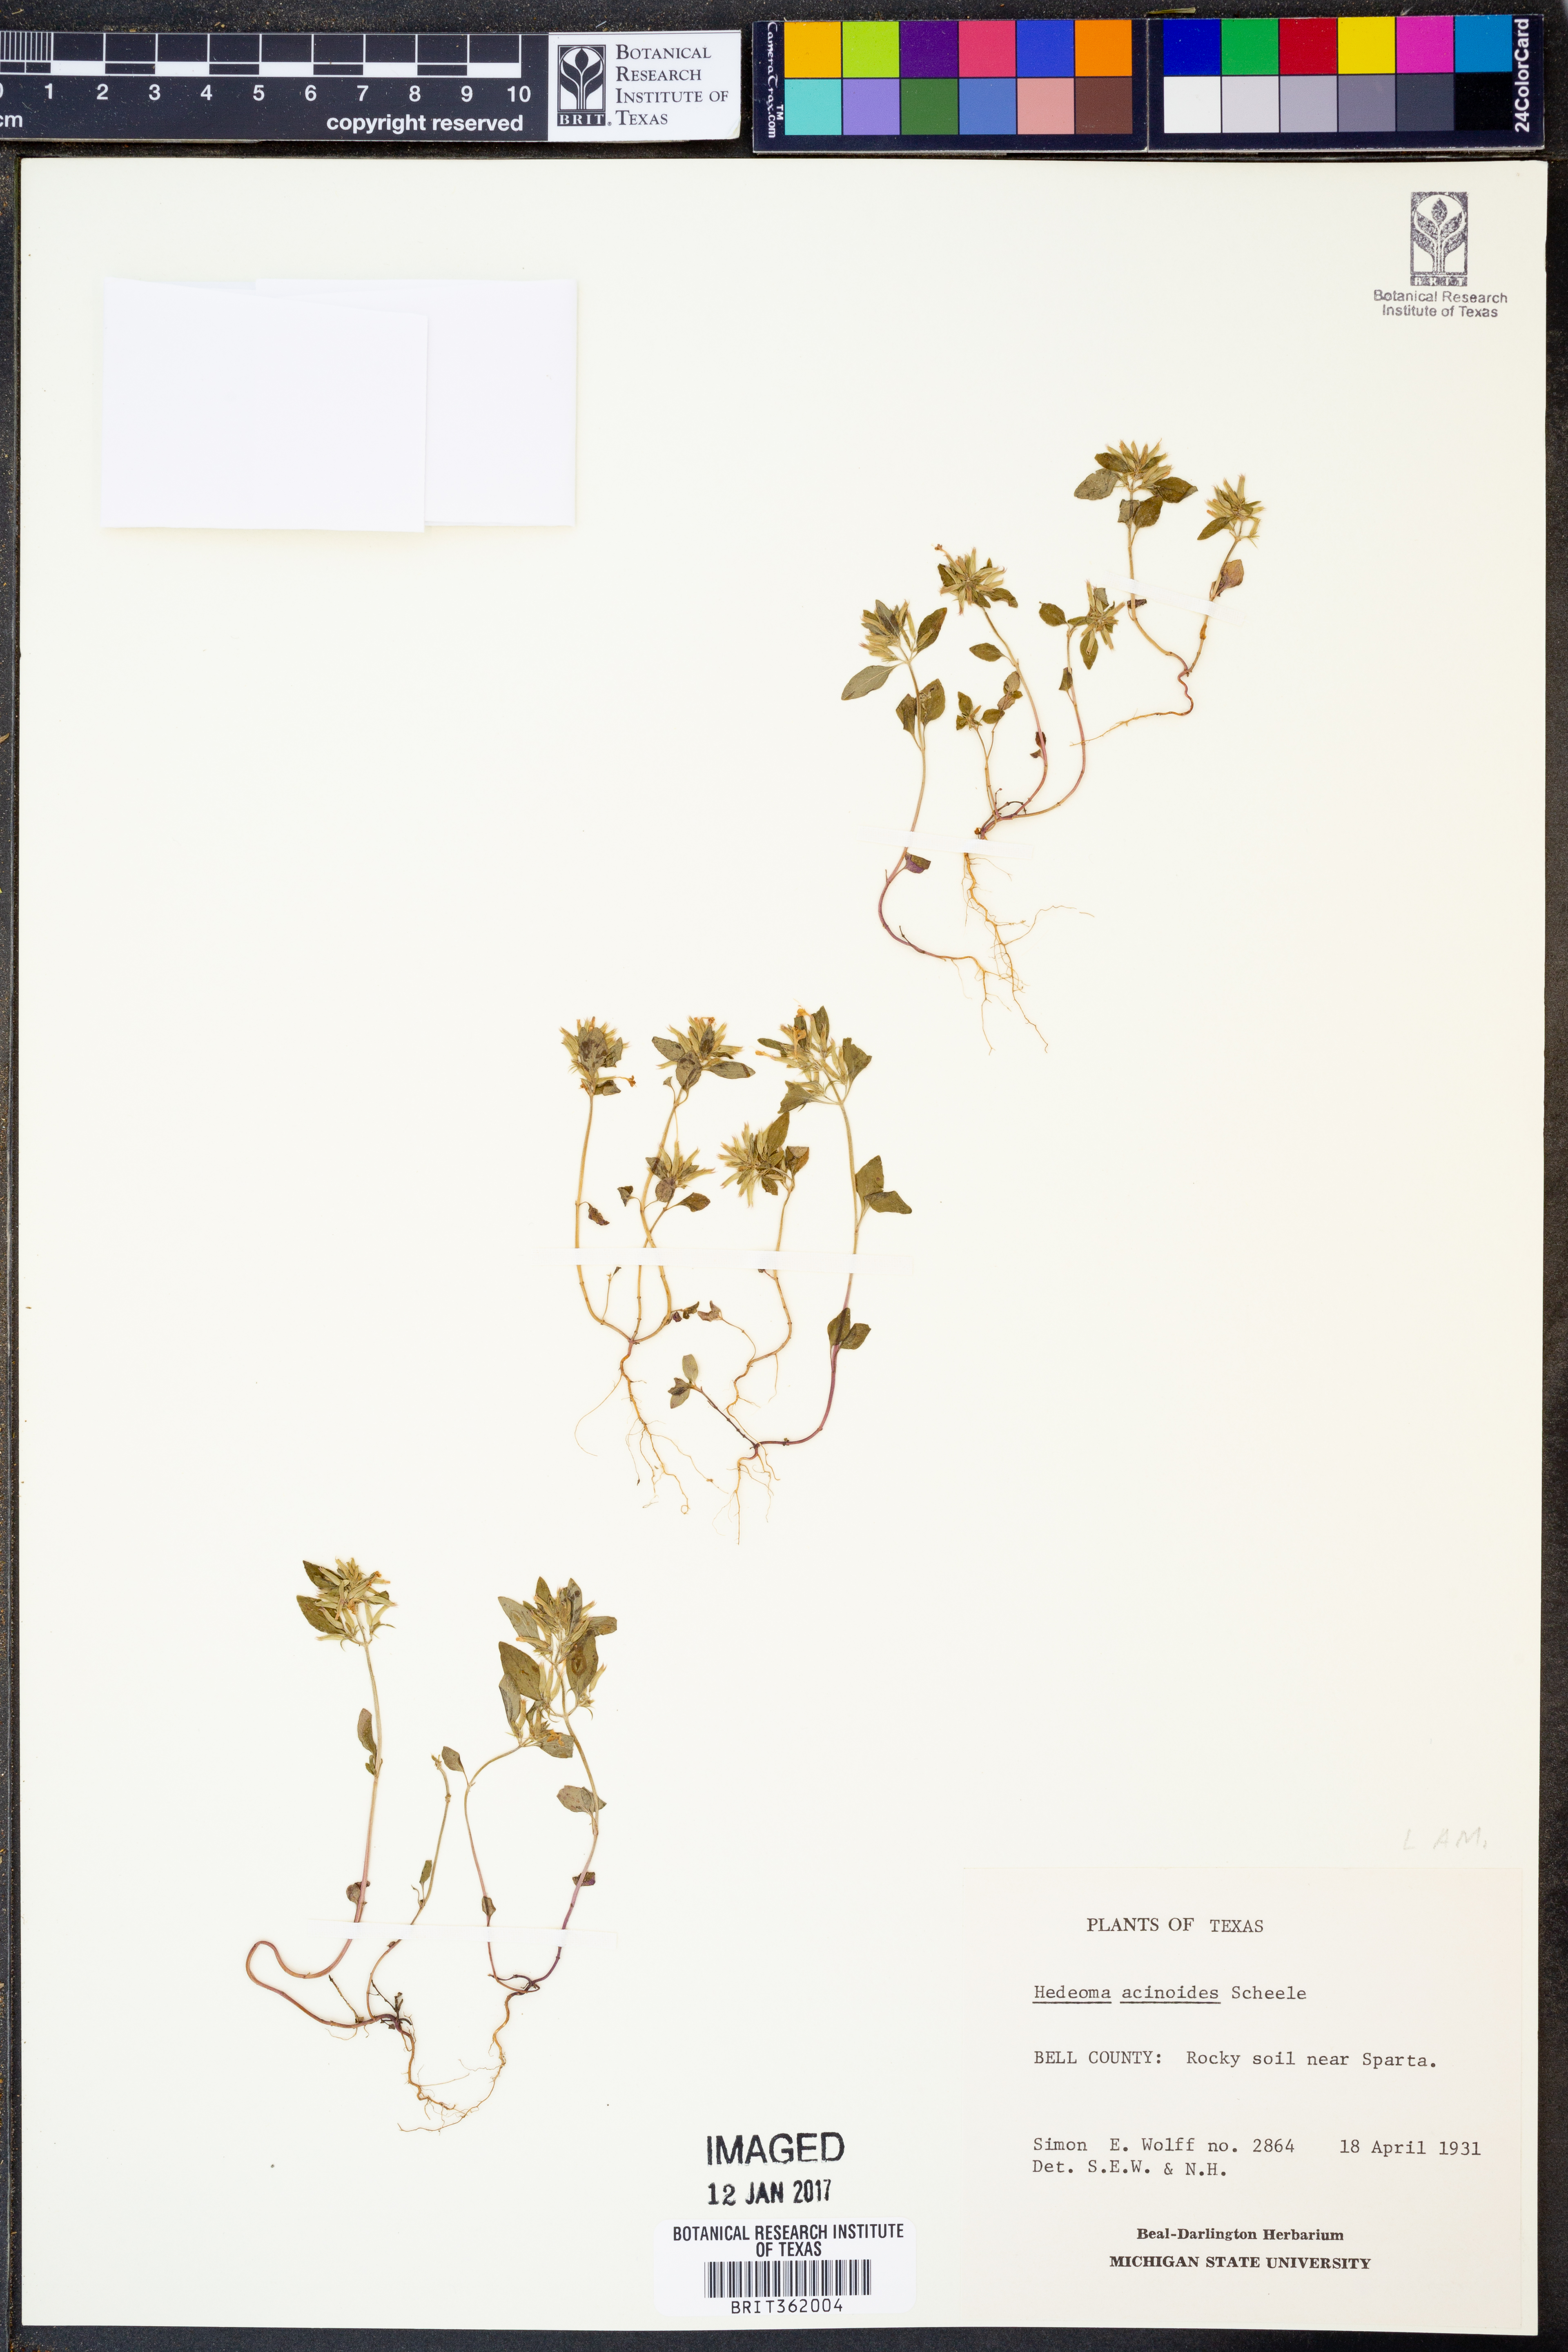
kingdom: Plantae
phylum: Tracheophyta
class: Magnoliopsida
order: Lamiales
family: Lamiaceae
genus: Hedeoma
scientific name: Hedeoma acinoides
